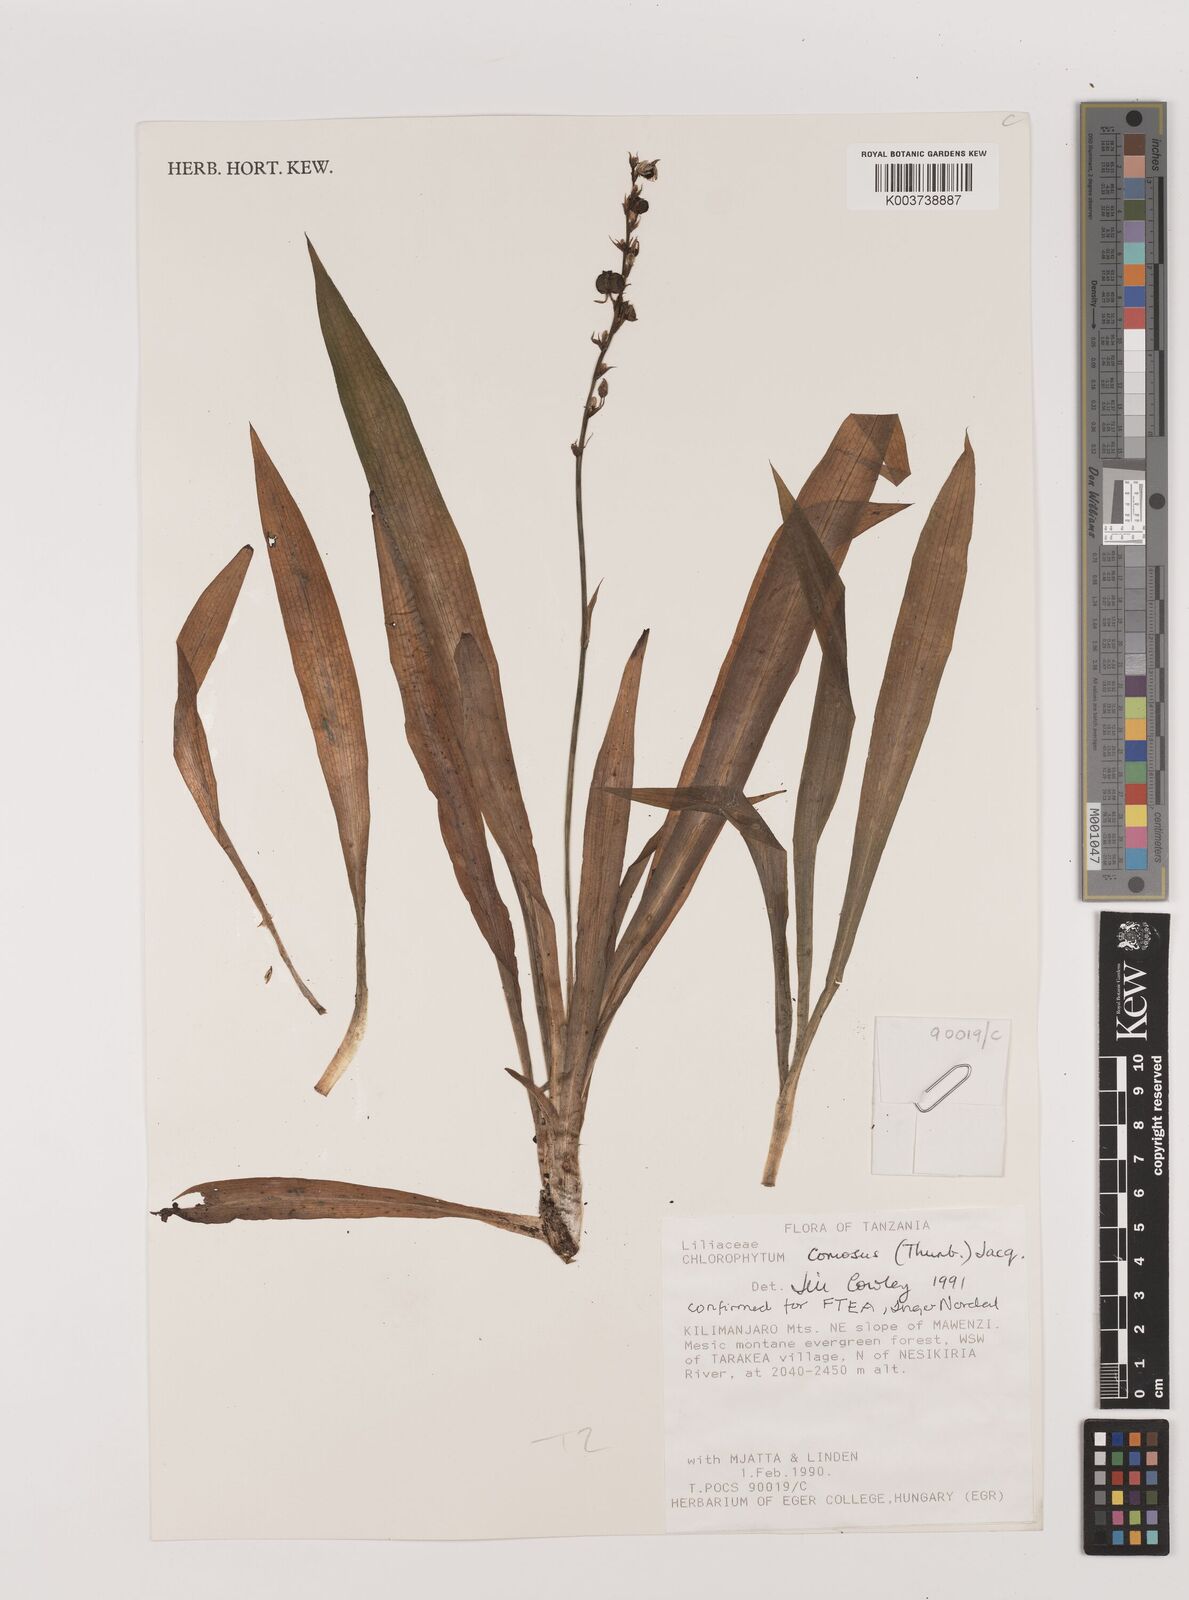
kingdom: Plantae
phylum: Tracheophyta
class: Liliopsida
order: Asparagales
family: Asparagaceae
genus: Chlorophytum
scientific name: Chlorophytum comosum
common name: Spider plant
